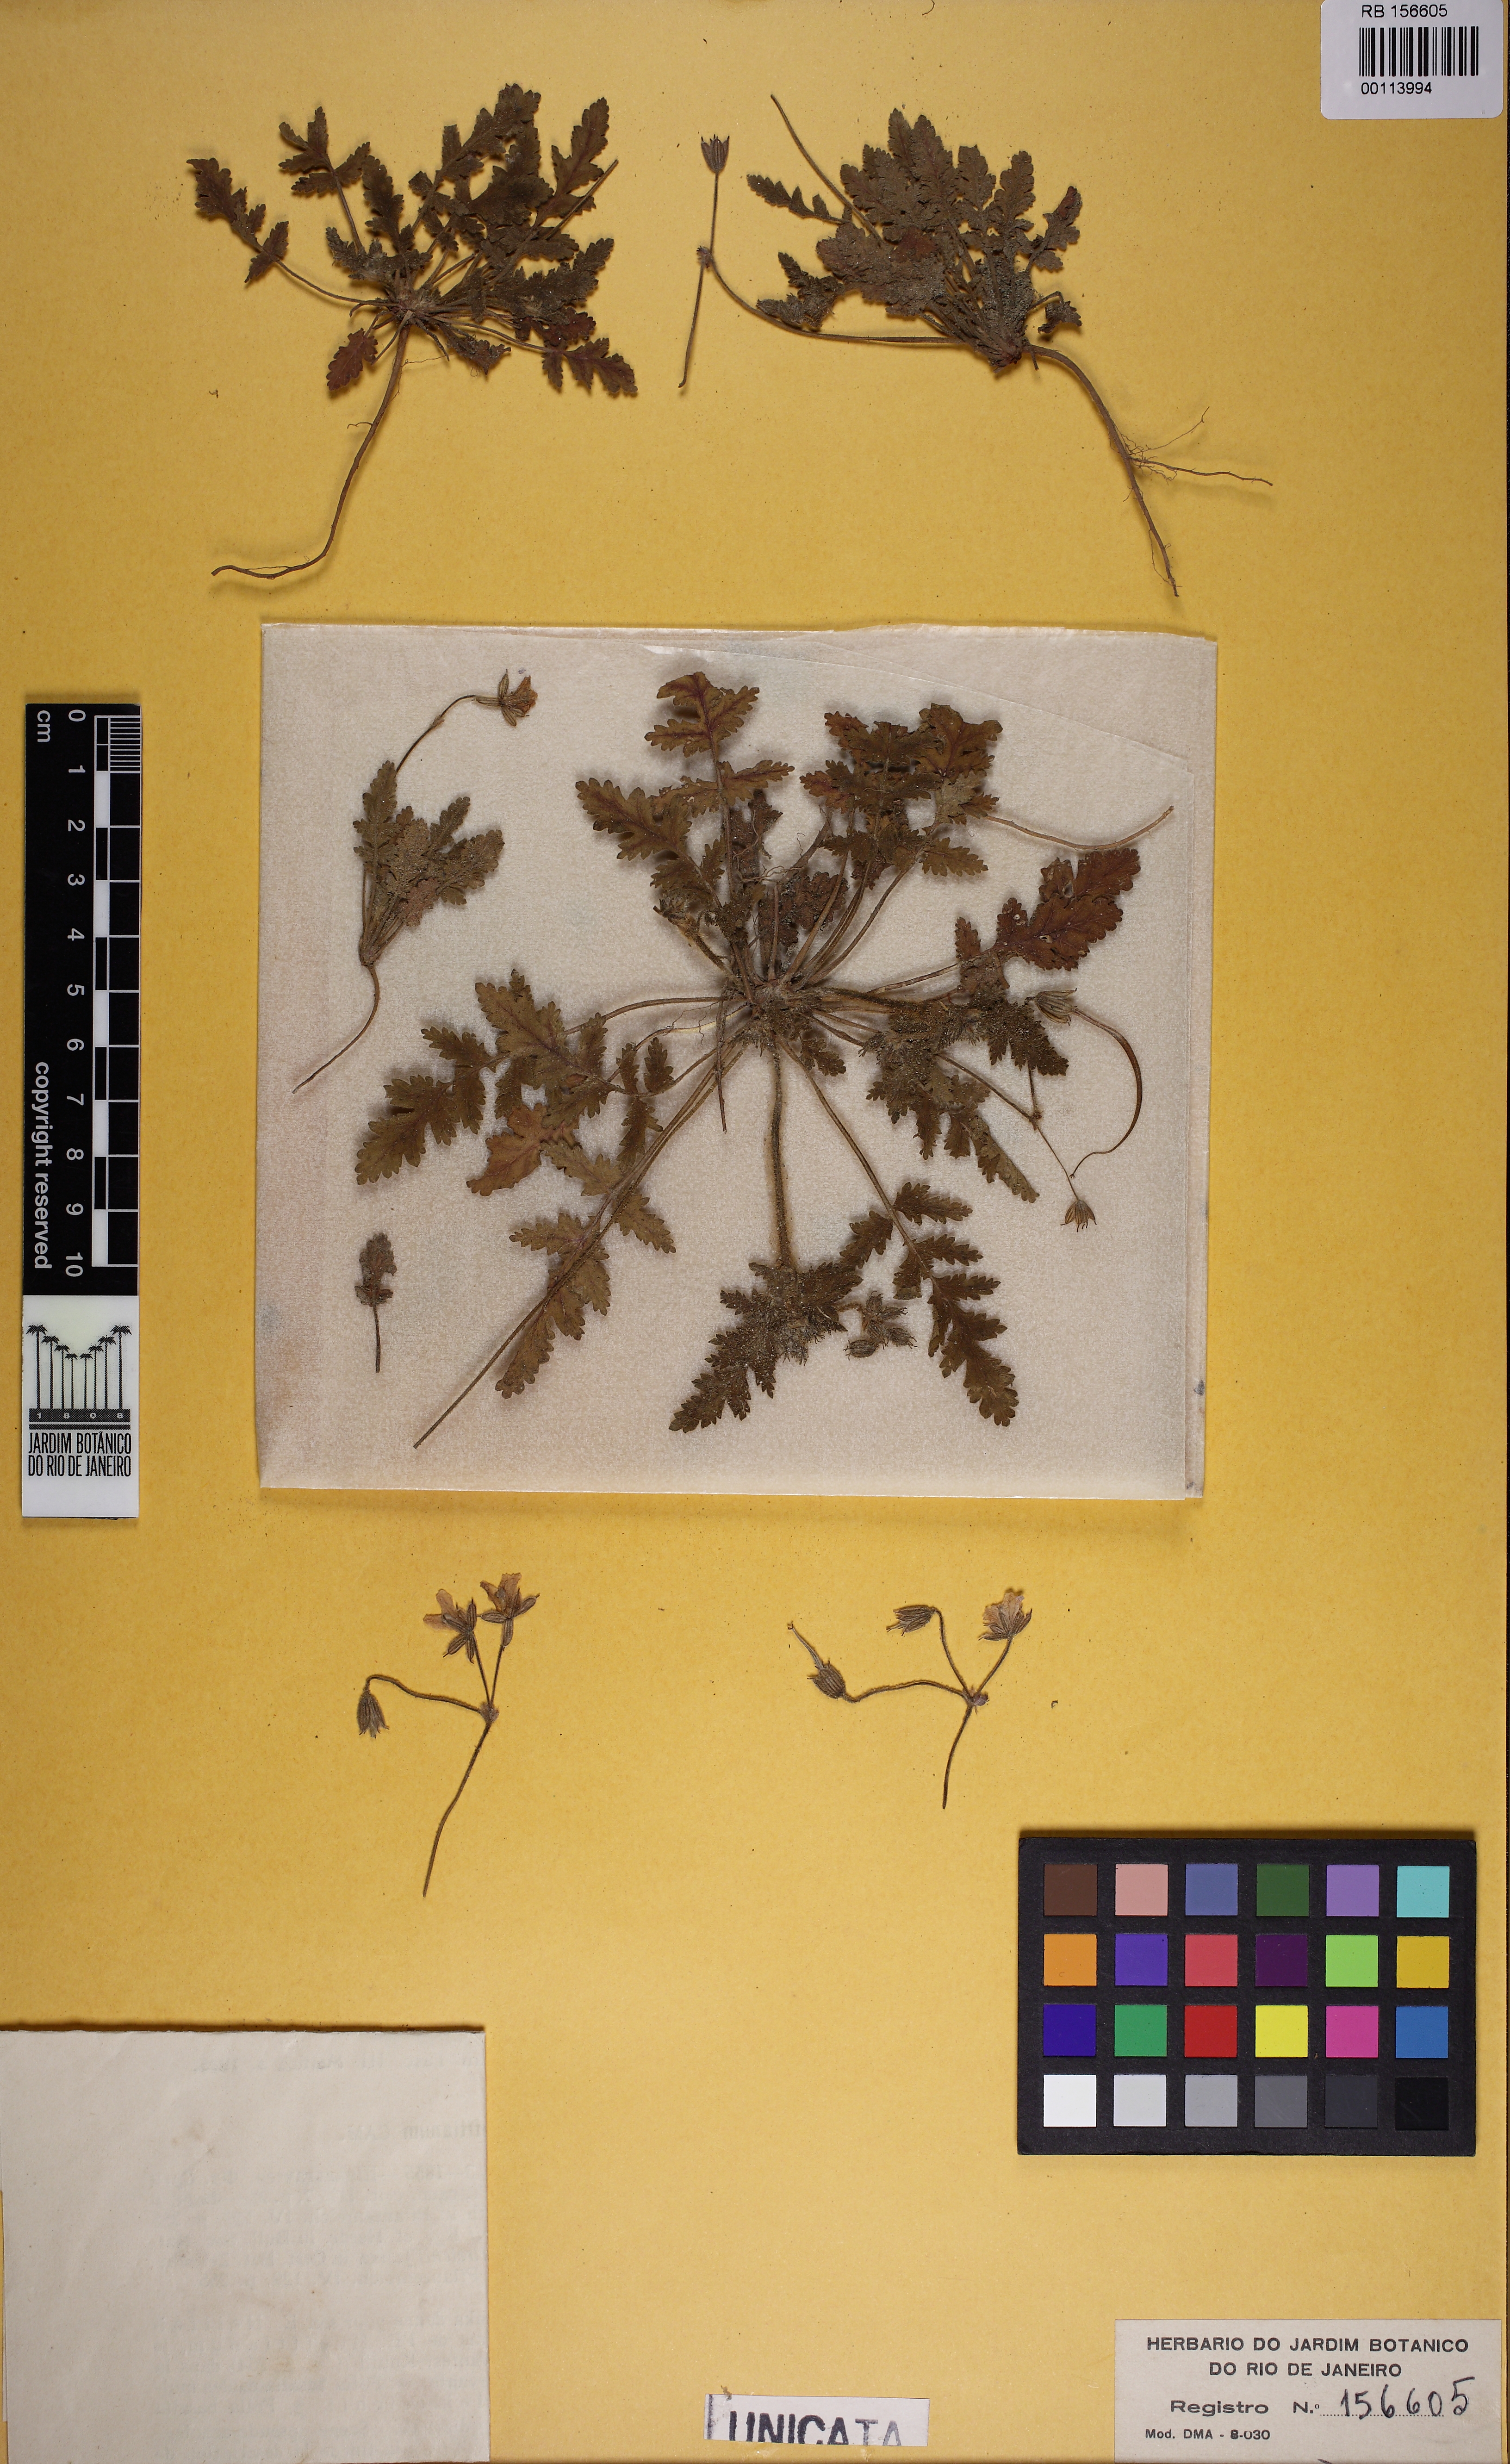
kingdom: Plantae
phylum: Tracheophyta
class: Magnoliopsida
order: Geraniales
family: Geraniaceae
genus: Erodium
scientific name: Erodium hoefftianum
